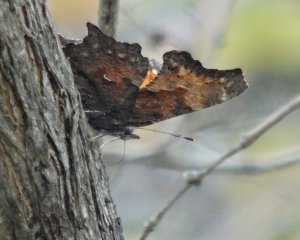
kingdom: Animalia
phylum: Arthropoda
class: Insecta
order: Lepidoptera
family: Nymphalidae
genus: Polygonia
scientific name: Polygonia progne
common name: Gray Comma
